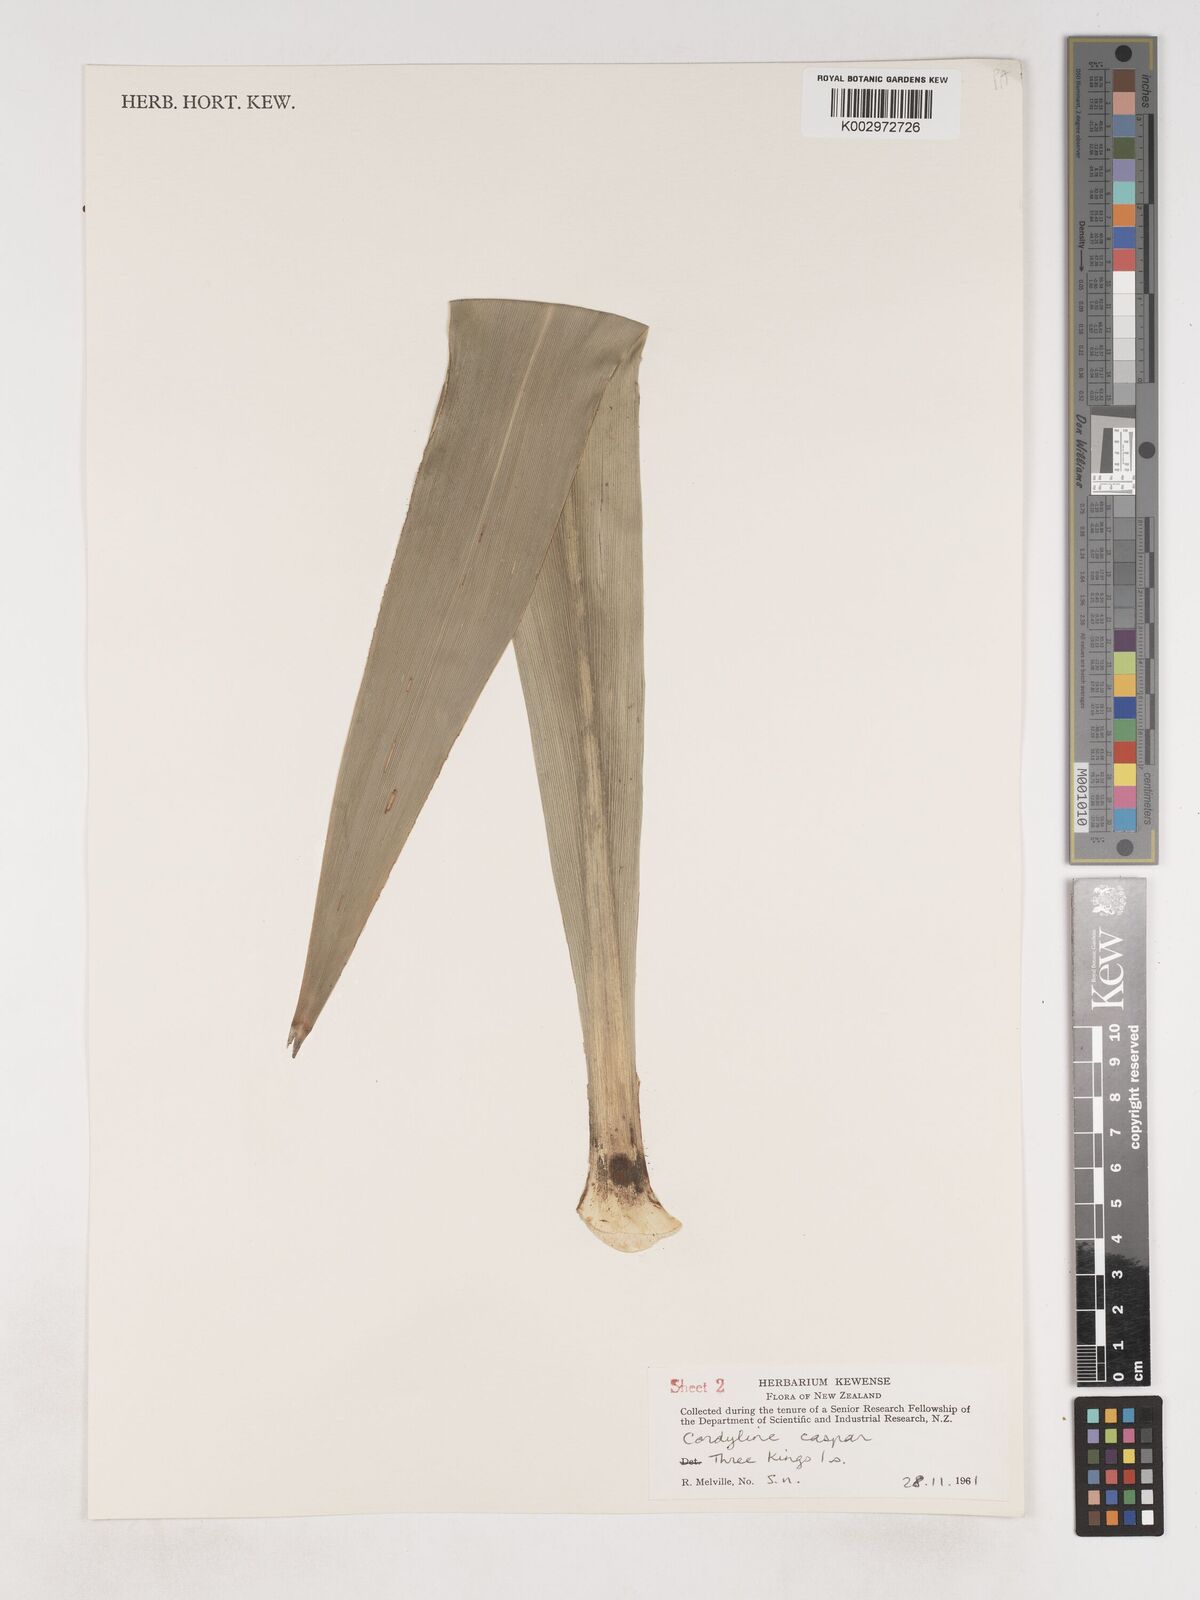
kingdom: Plantae
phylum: Tracheophyta
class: Liliopsida
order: Asparagales
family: Asparagaceae
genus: Cordyline
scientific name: Cordyline obtecta
